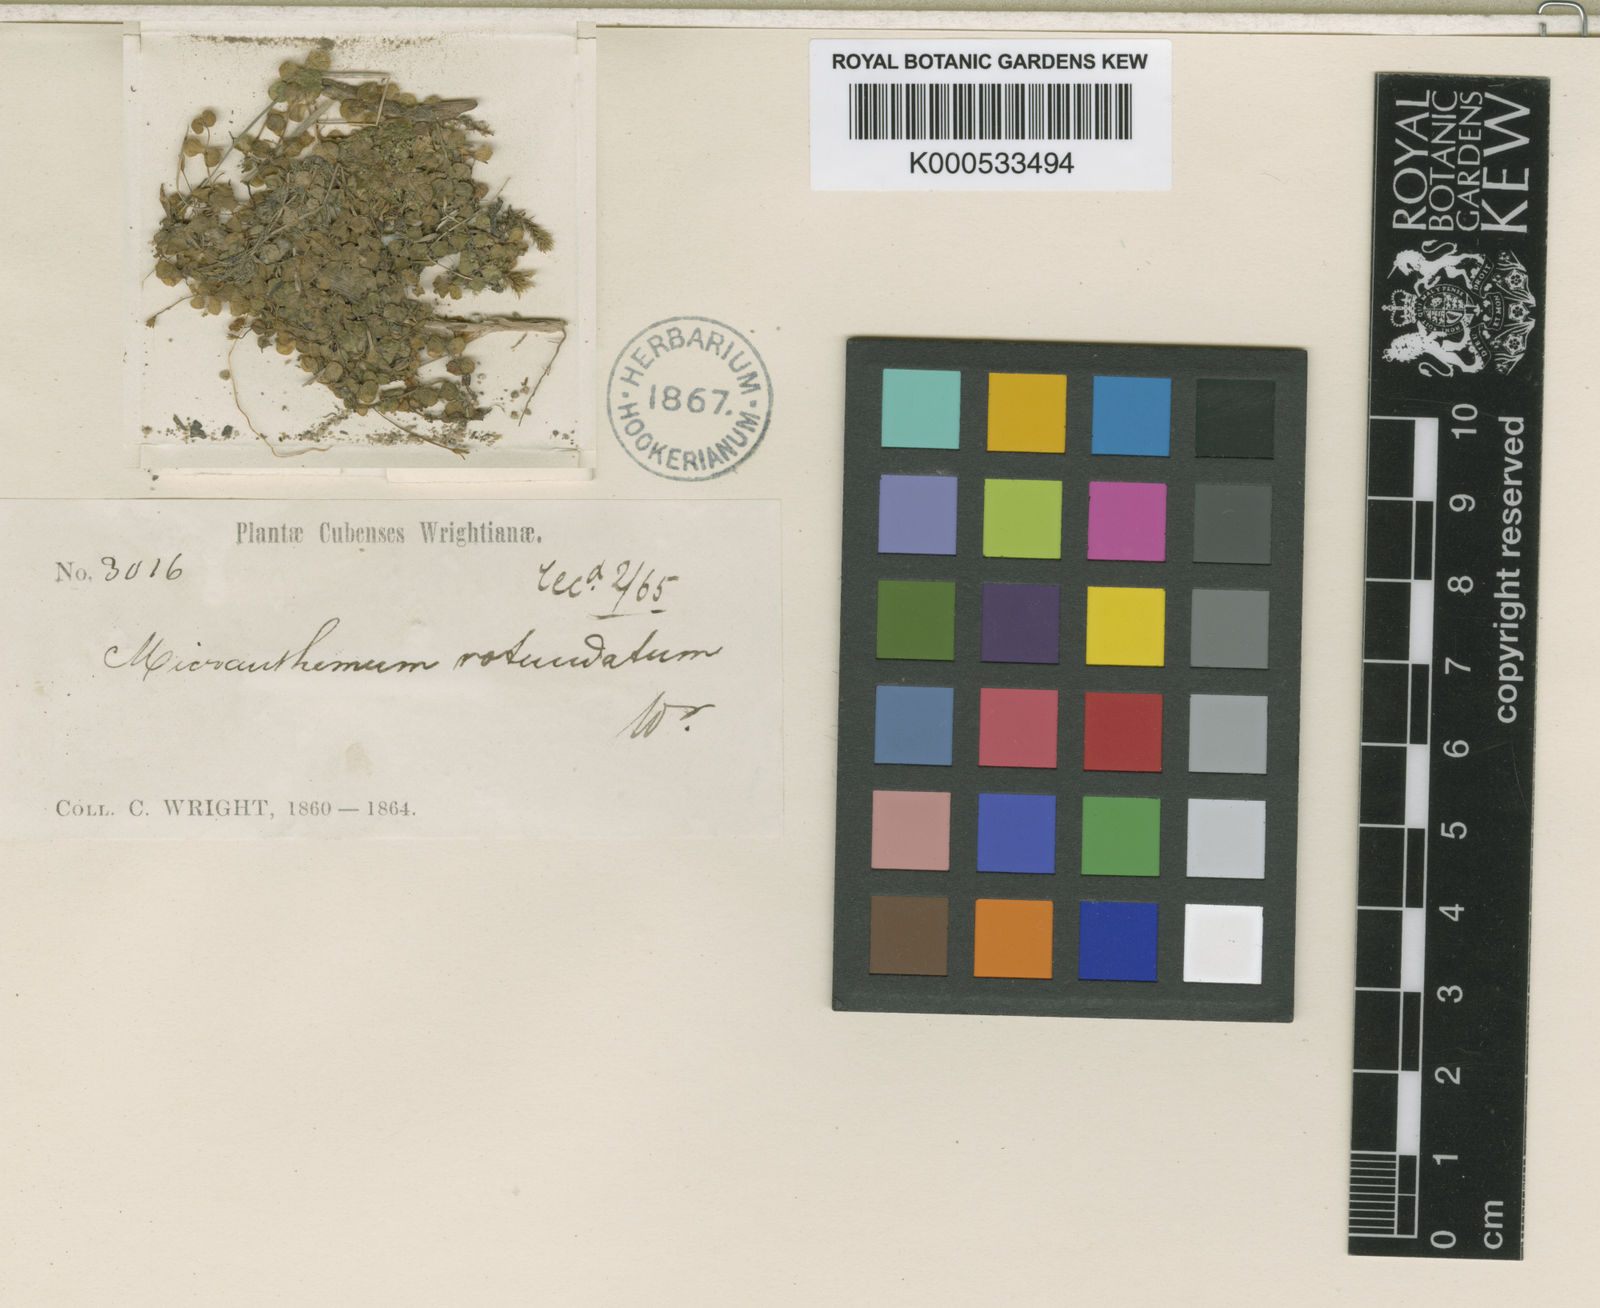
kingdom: Plantae
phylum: Tracheophyta
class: Magnoliopsida
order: Lamiales
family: Linderniaceae
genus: Micranthemum
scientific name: Micranthemum
